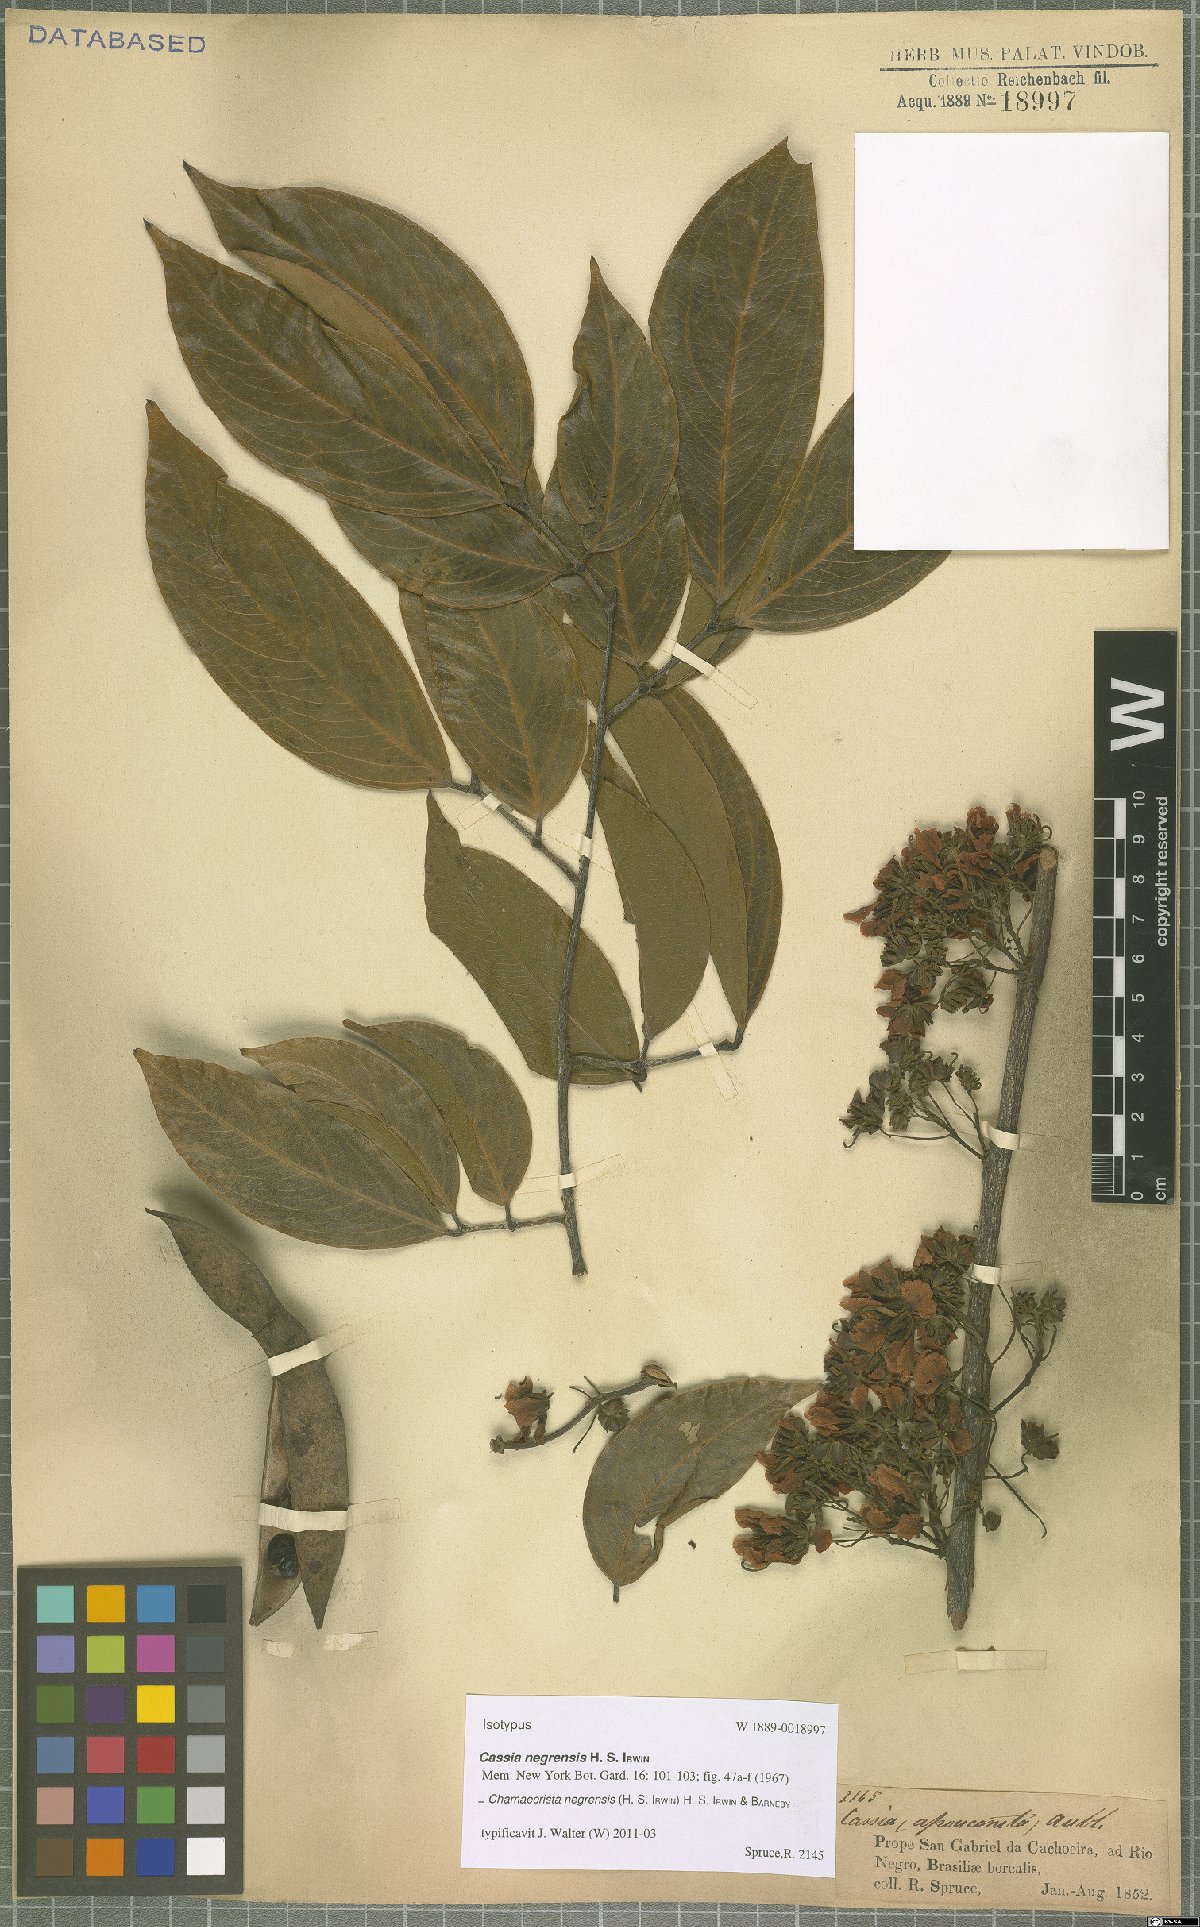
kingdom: Plantae
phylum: Tracheophyta
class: Magnoliopsida
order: Fabales
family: Fabaceae
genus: Chamaecrista
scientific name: Chamaecrista negrensis
